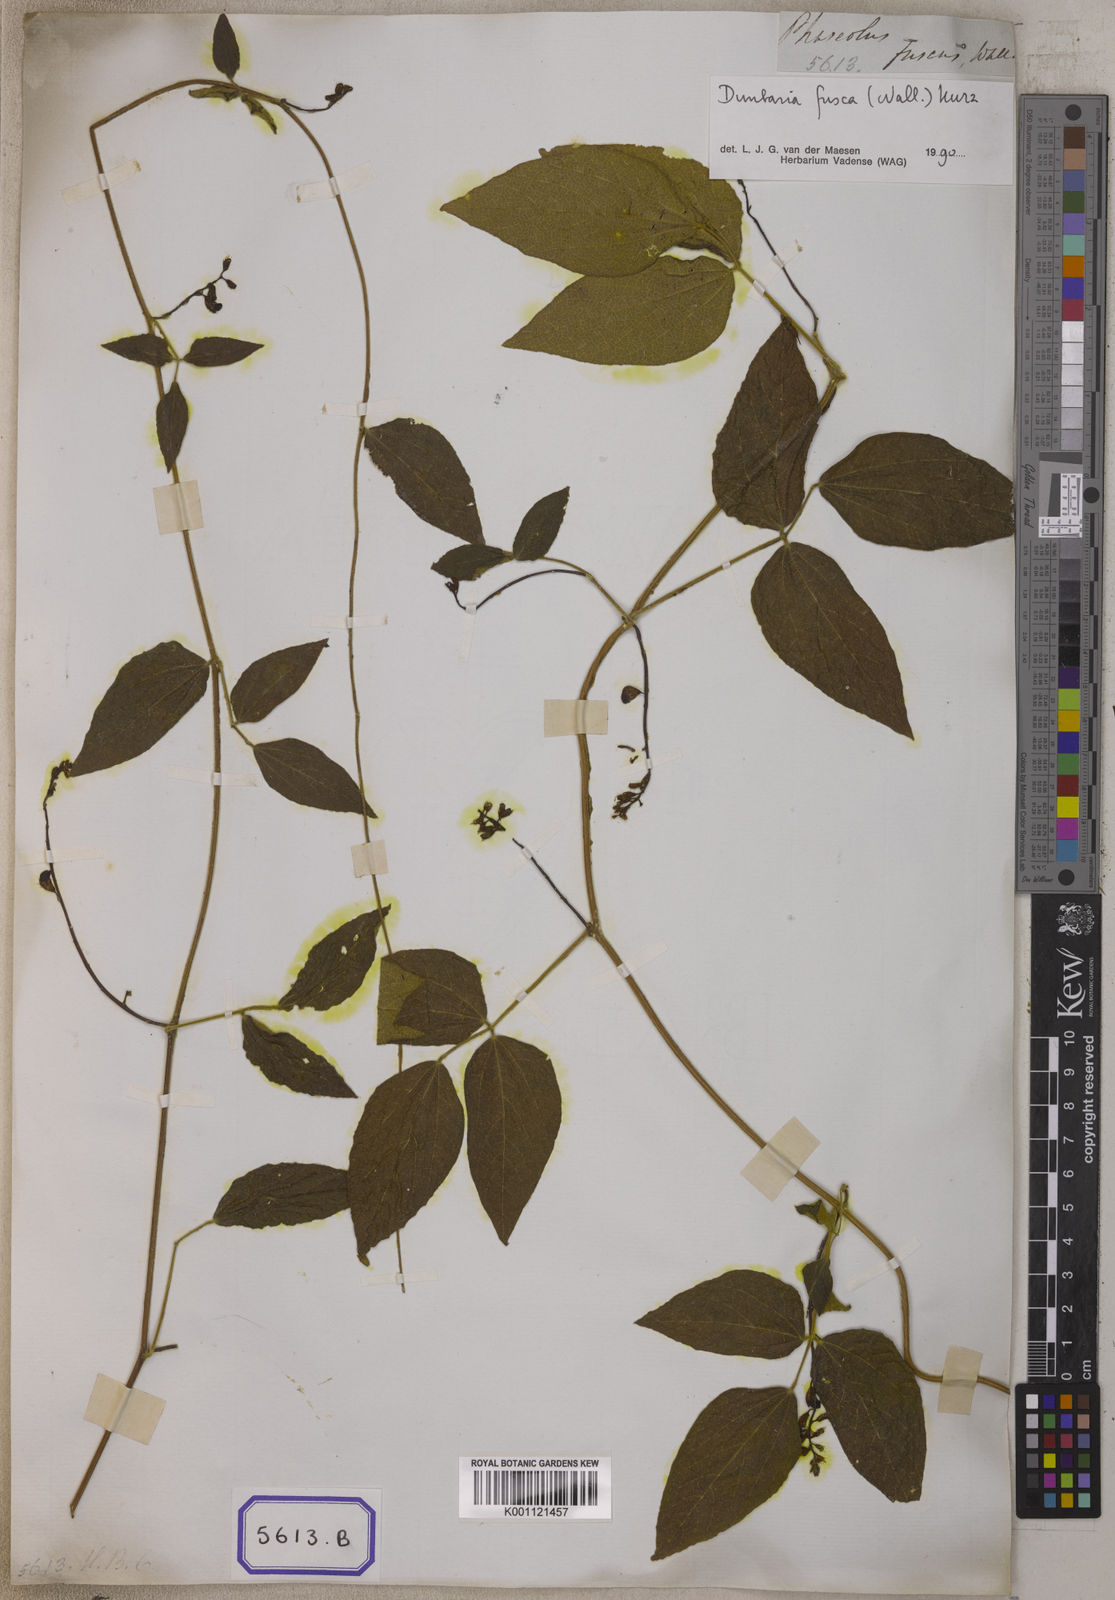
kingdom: Plantae
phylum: Tracheophyta
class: Magnoliopsida
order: Fabales
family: Fabaceae
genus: Dunbaria
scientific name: Dunbaria fusca
